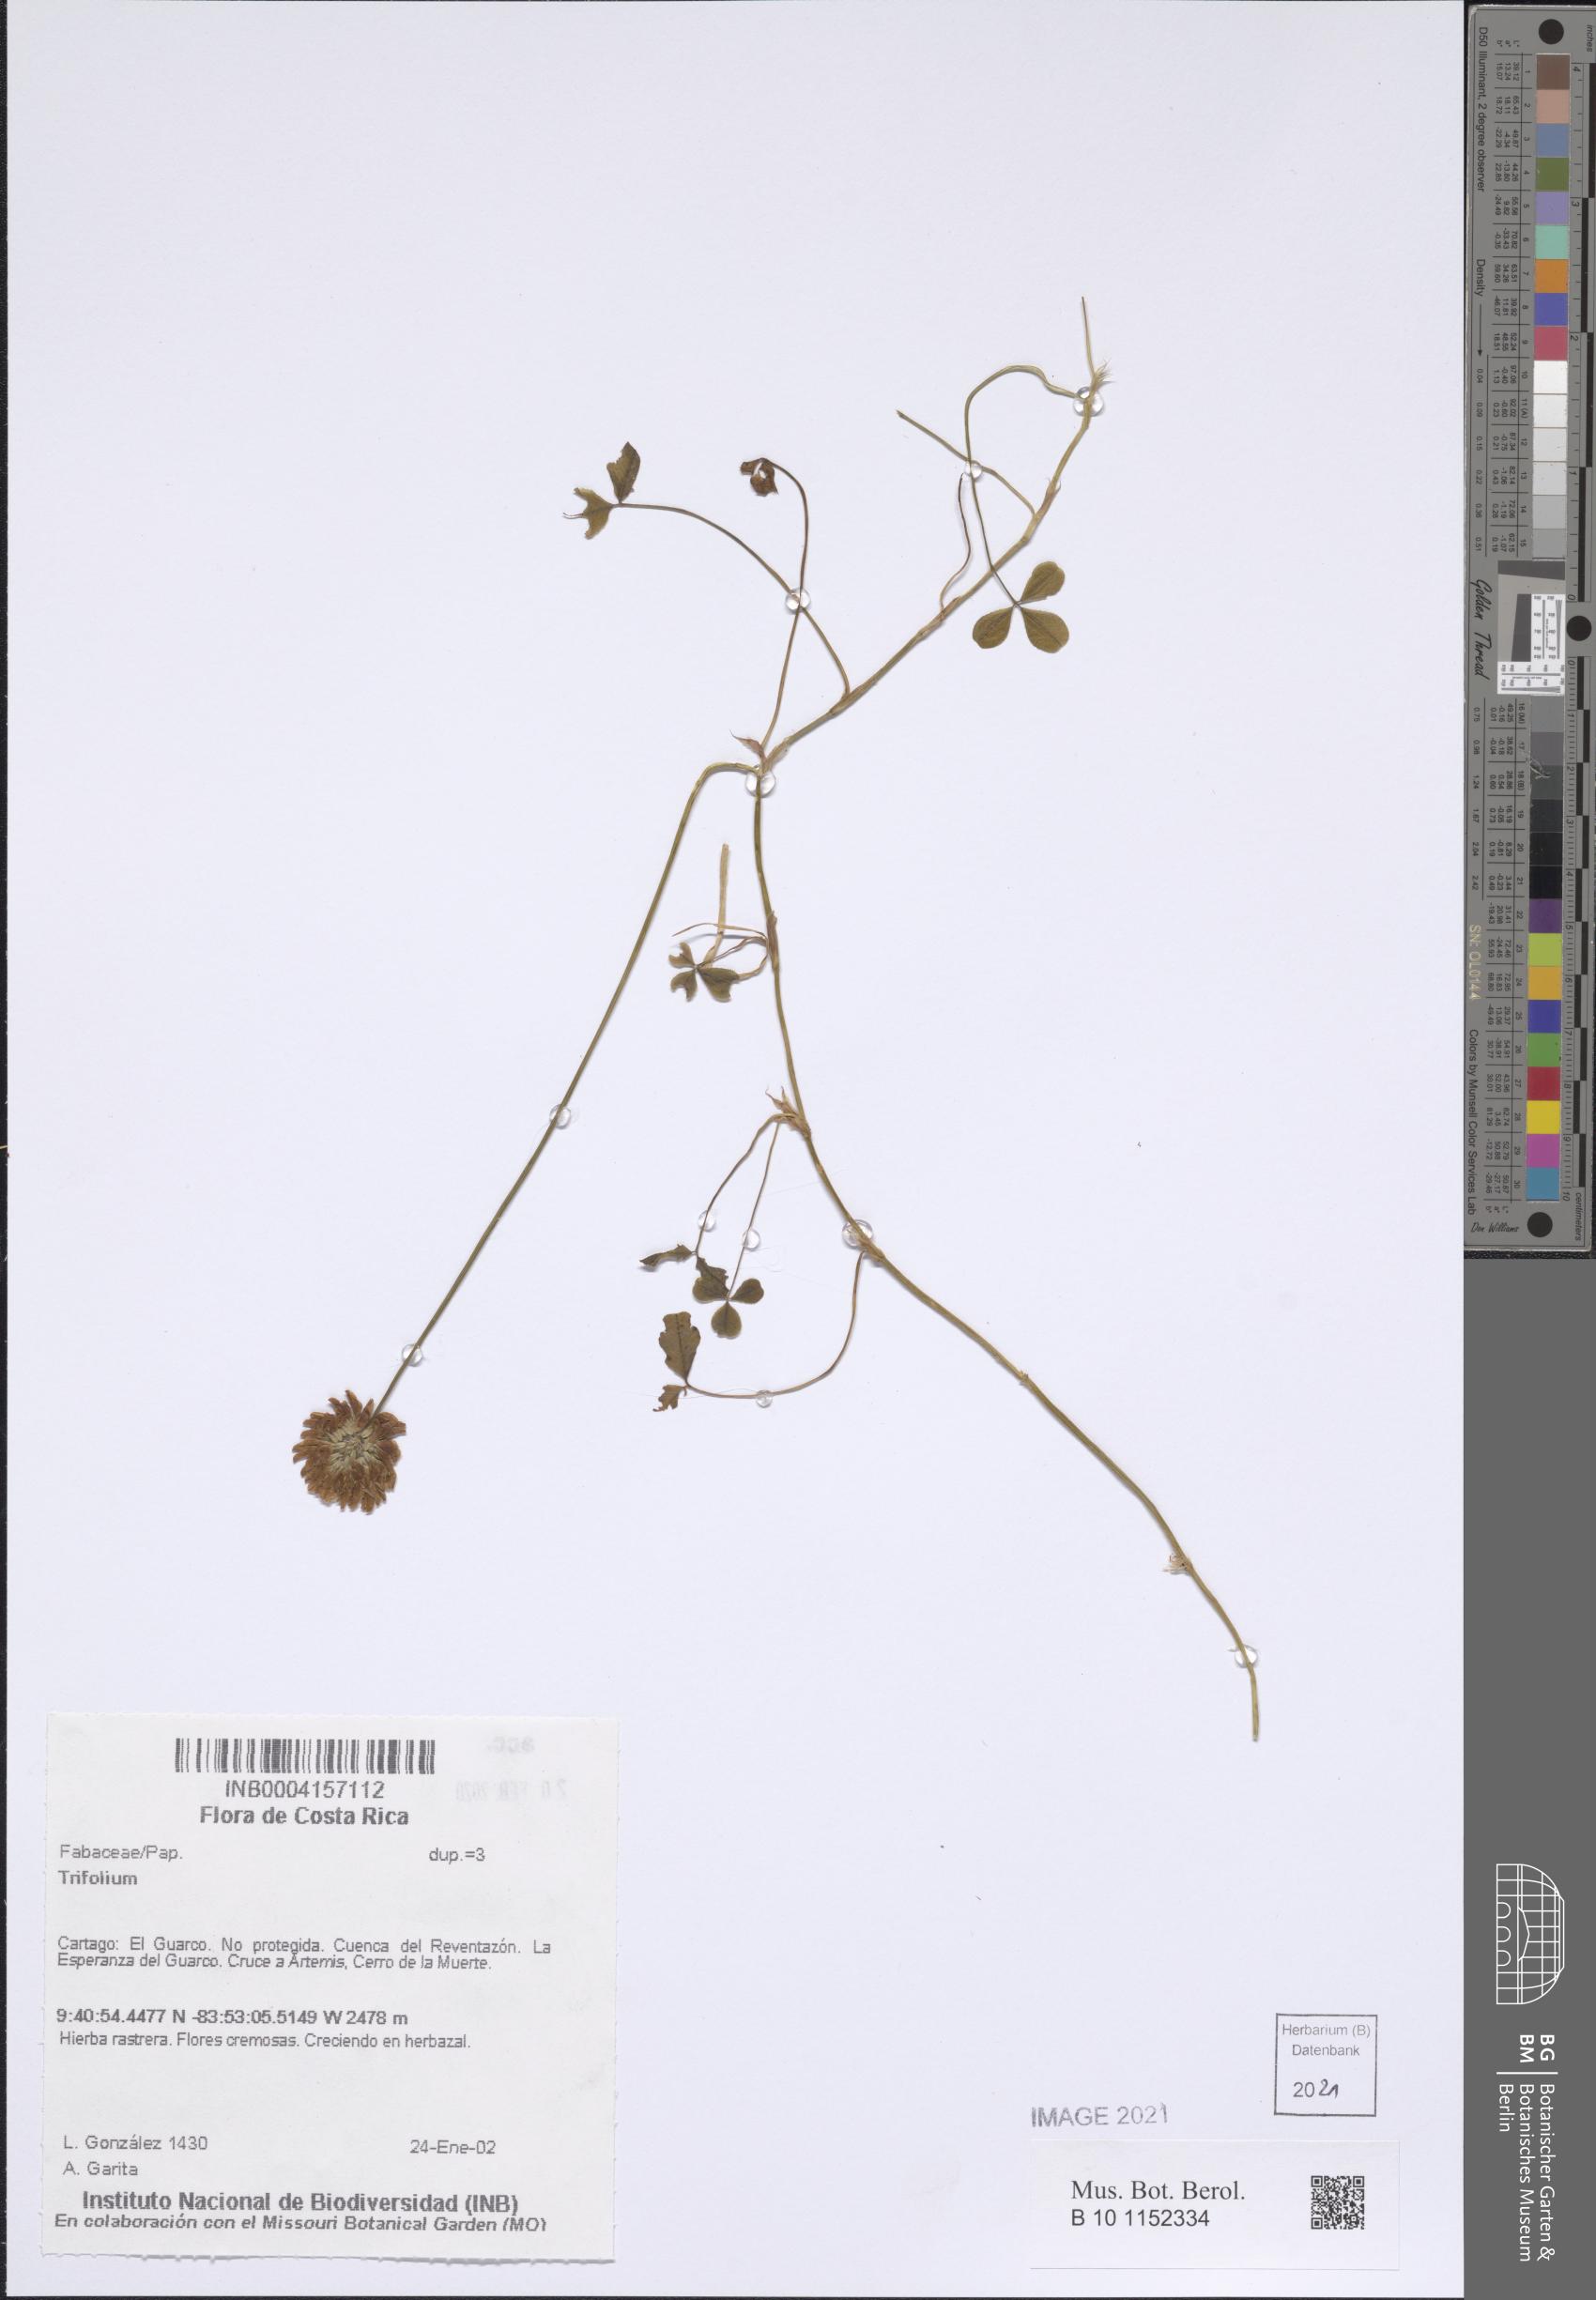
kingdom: Plantae
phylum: Tracheophyta
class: Magnoliopsida
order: Fabales
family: Fabaceae
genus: Trifolium
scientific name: Trifolium
